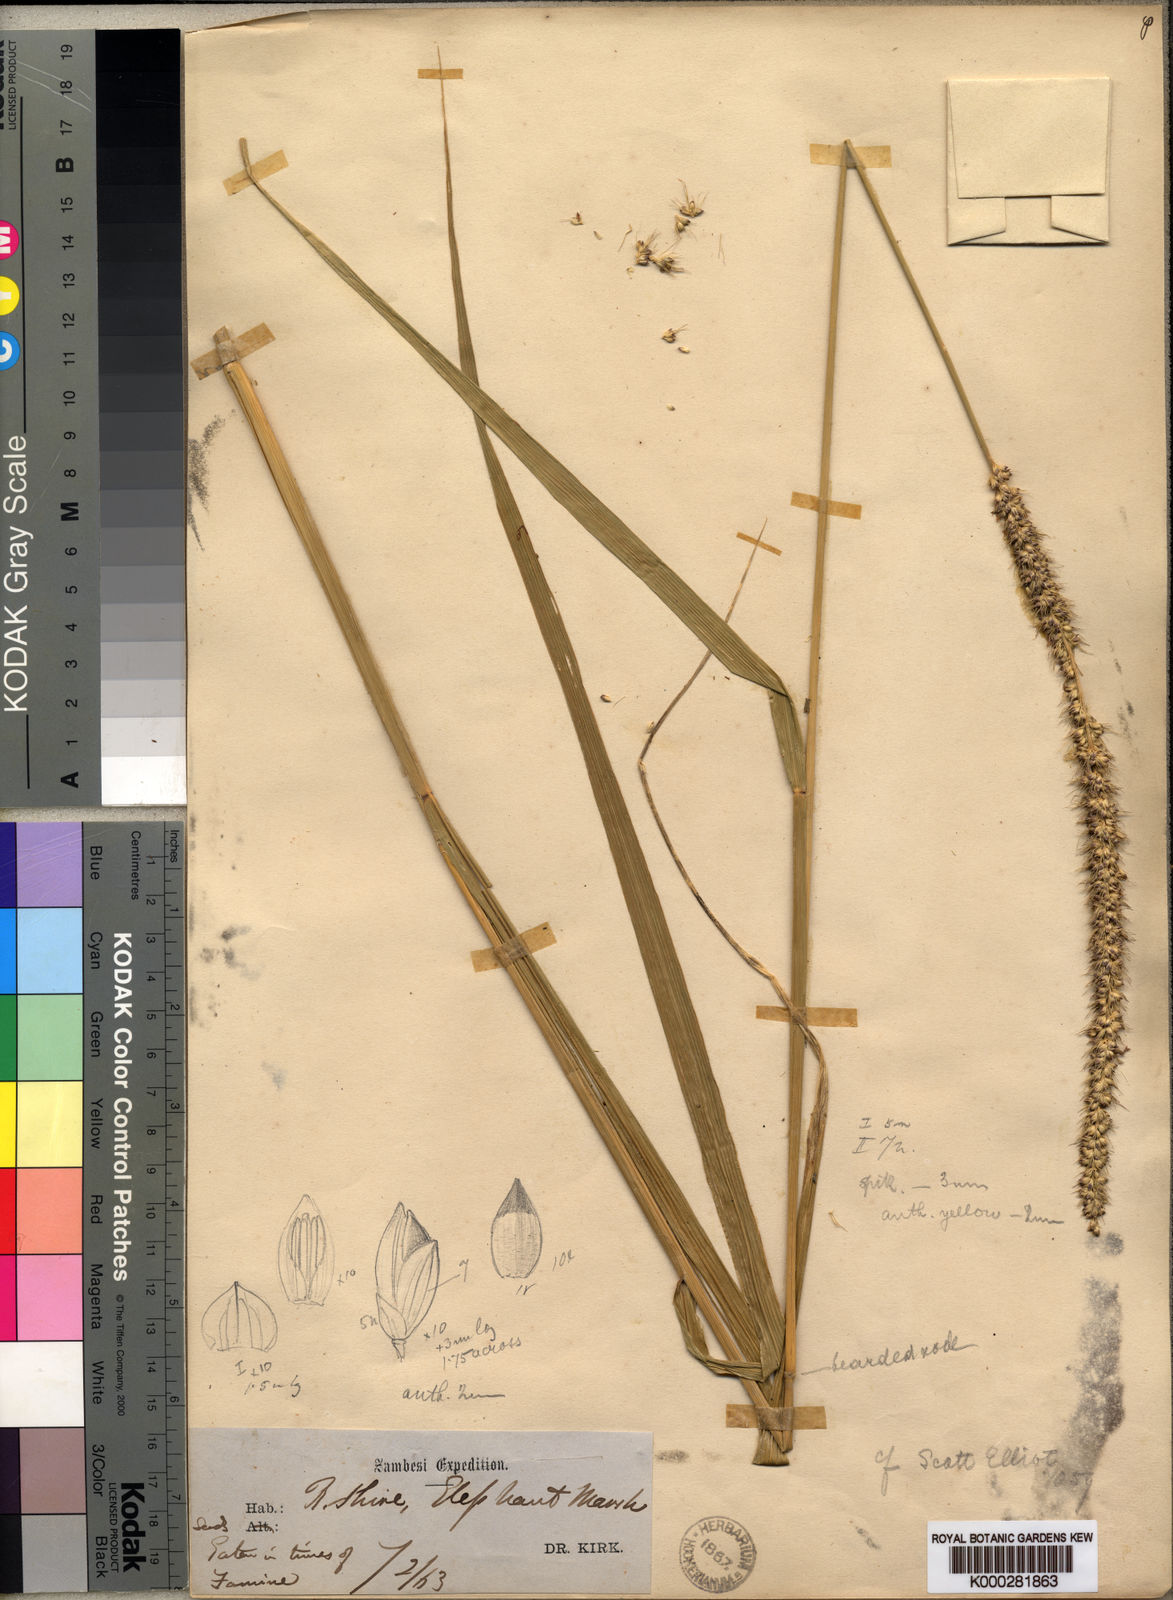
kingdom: Plantae
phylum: Tracheophyta
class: Liliopsida
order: Poales
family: Poaceae
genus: Setaria
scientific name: Setaria incrassata
